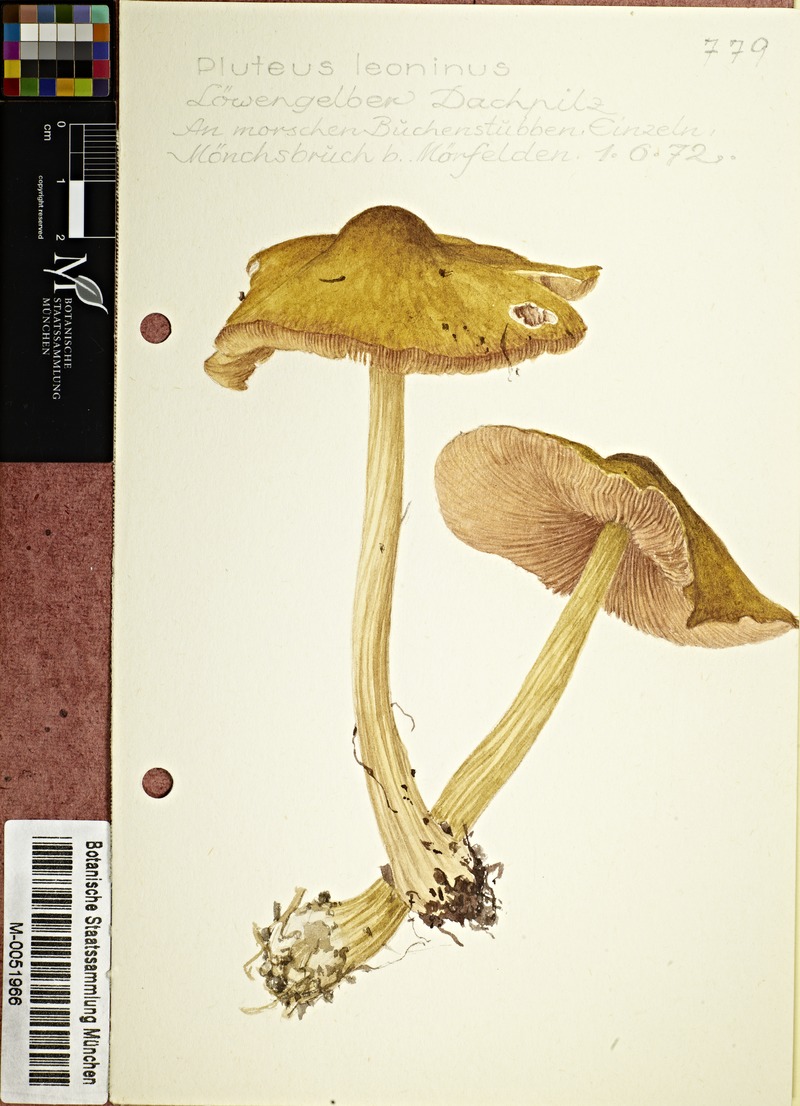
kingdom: Fungi
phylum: Basidiomycota
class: Agaricomycetes
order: Agaricales
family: Pluteaceae
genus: Pluteus
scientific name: Pluteus leoninus
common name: Lion shield
